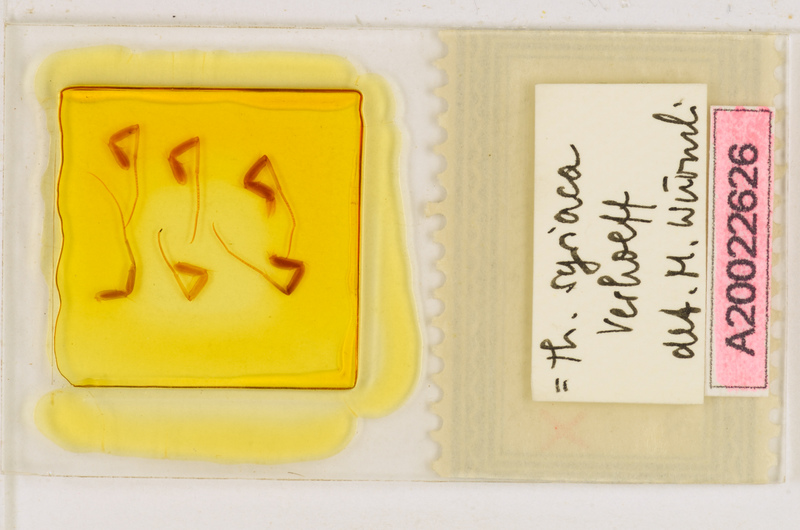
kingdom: Animalia
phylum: Arthropoda
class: Chilopoda
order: Scutigeromorpha
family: Scutigeridae
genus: Thereuonema
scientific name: Thereuonema microstoma
